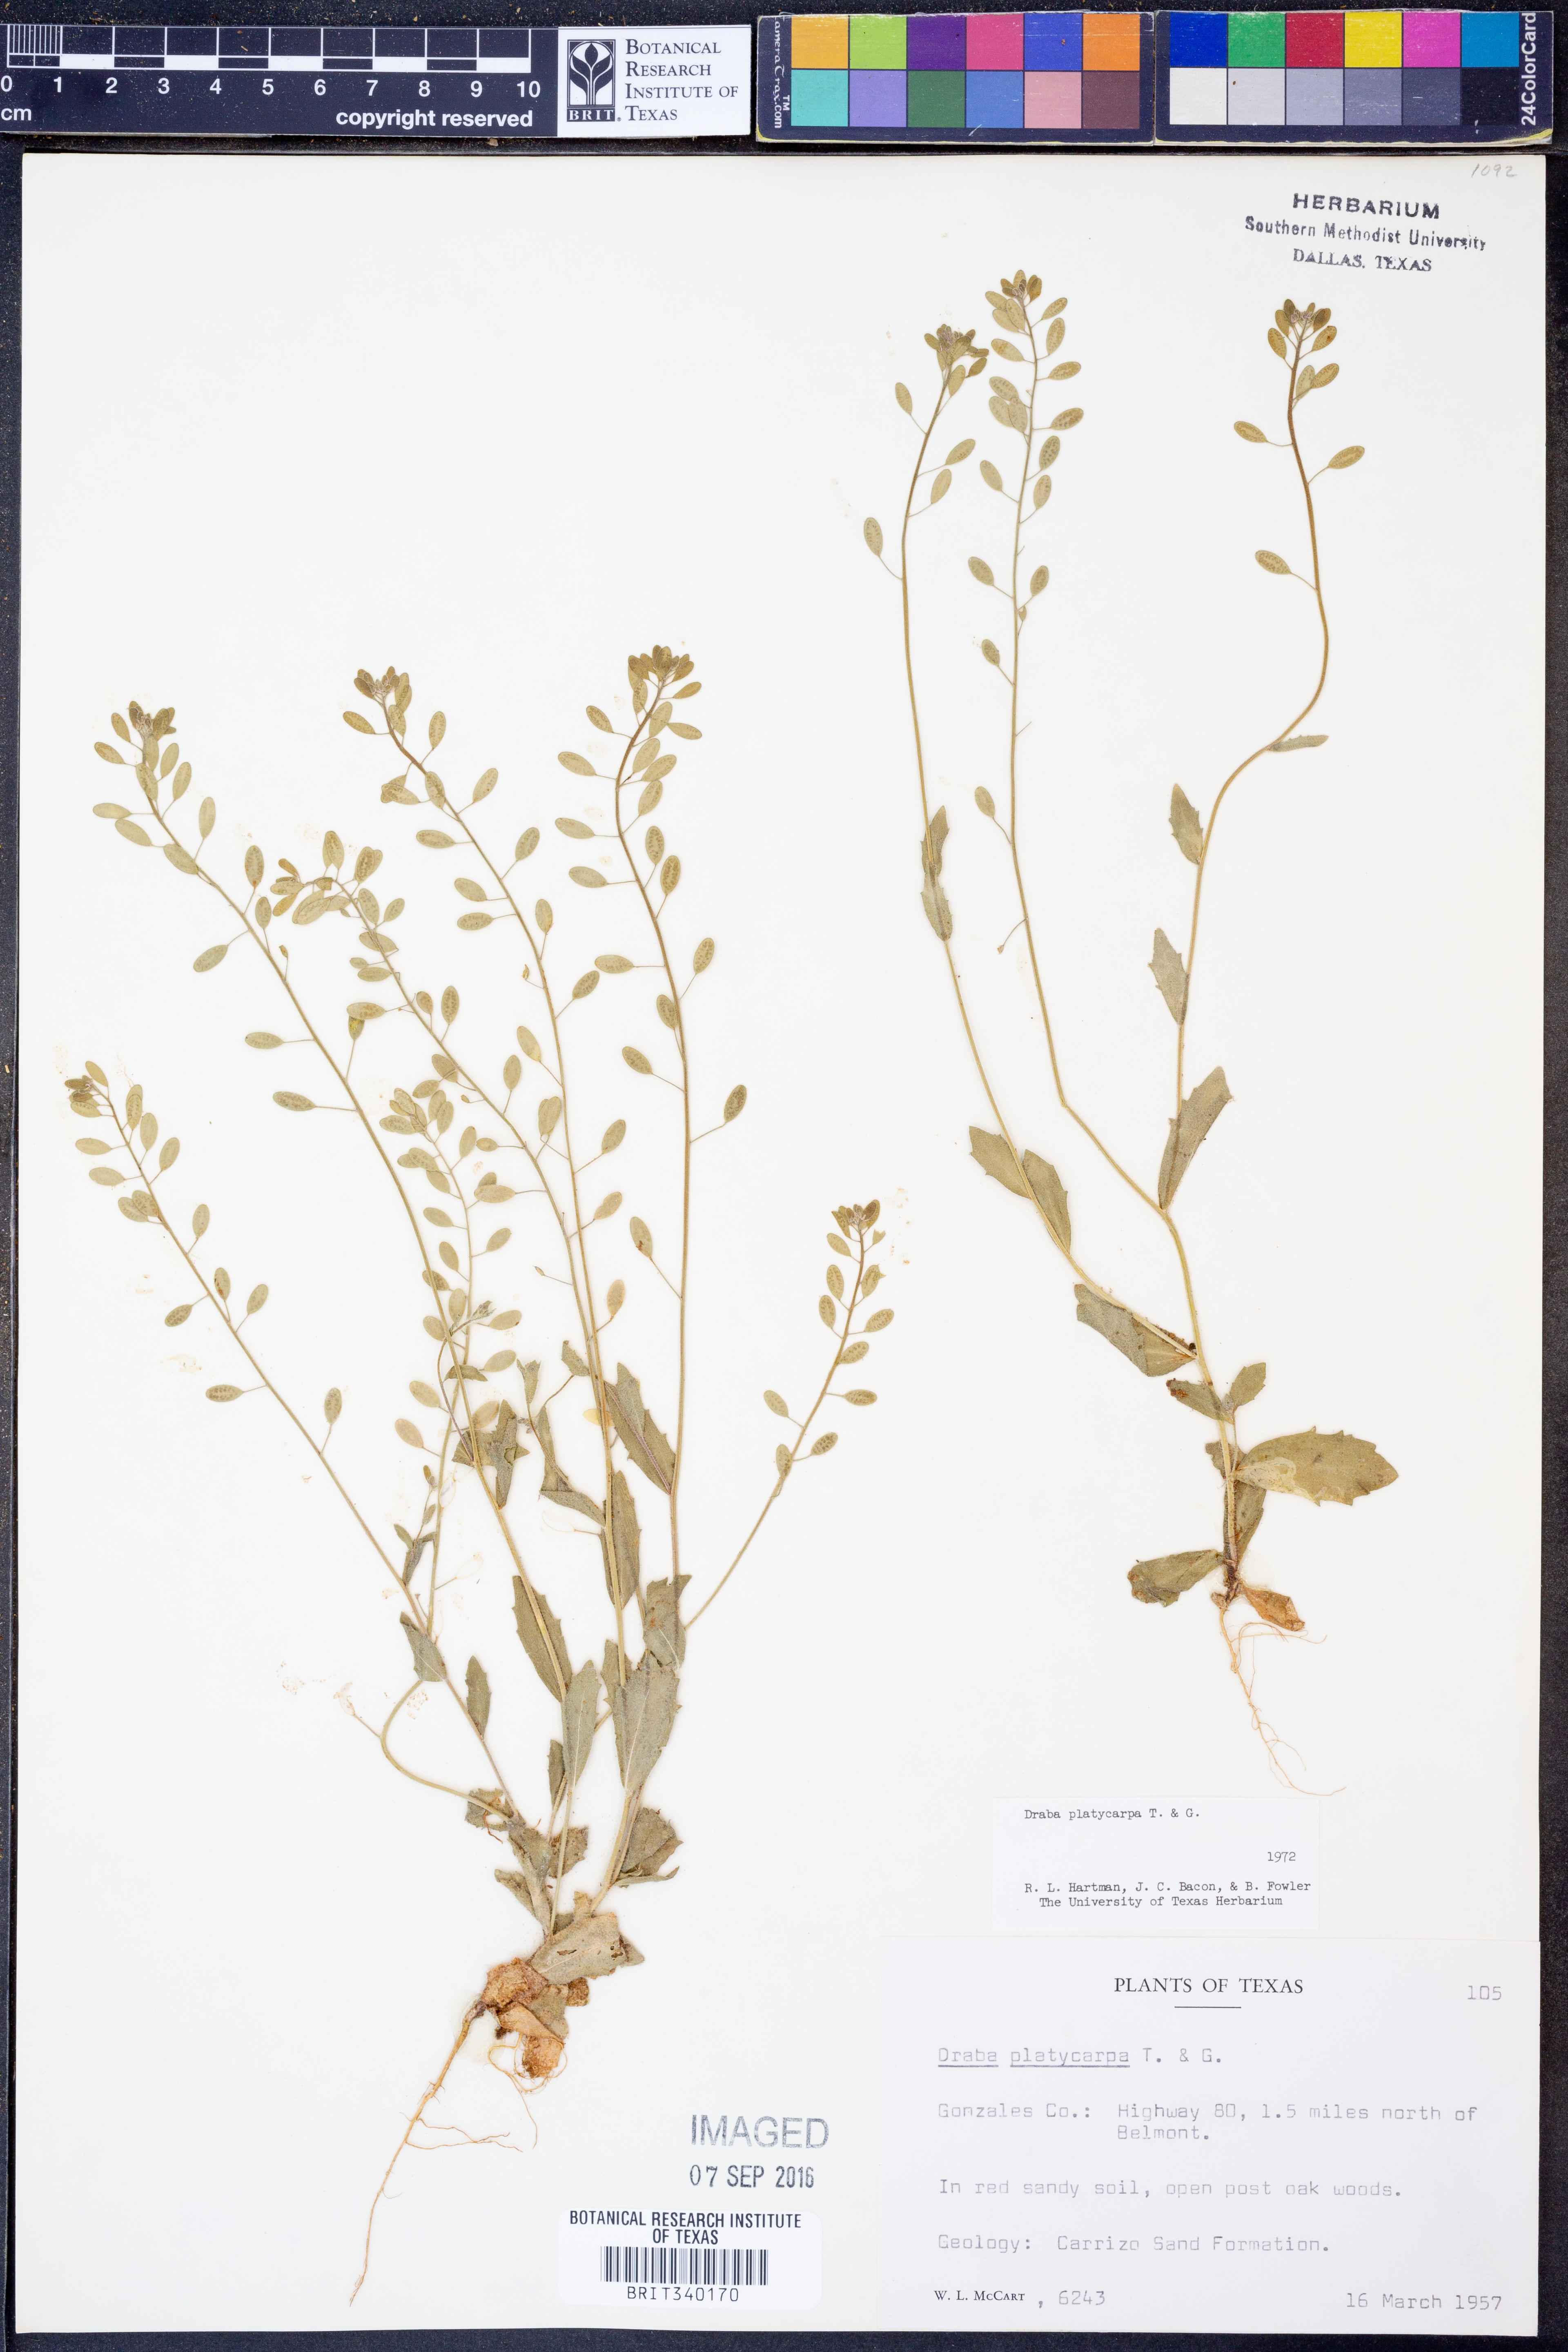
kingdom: Plantae
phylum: Tracheophyta
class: Magnoliopsida
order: Brassicales
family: Brassicaceae
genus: Tomostima
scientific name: Tomostima platycarpa
